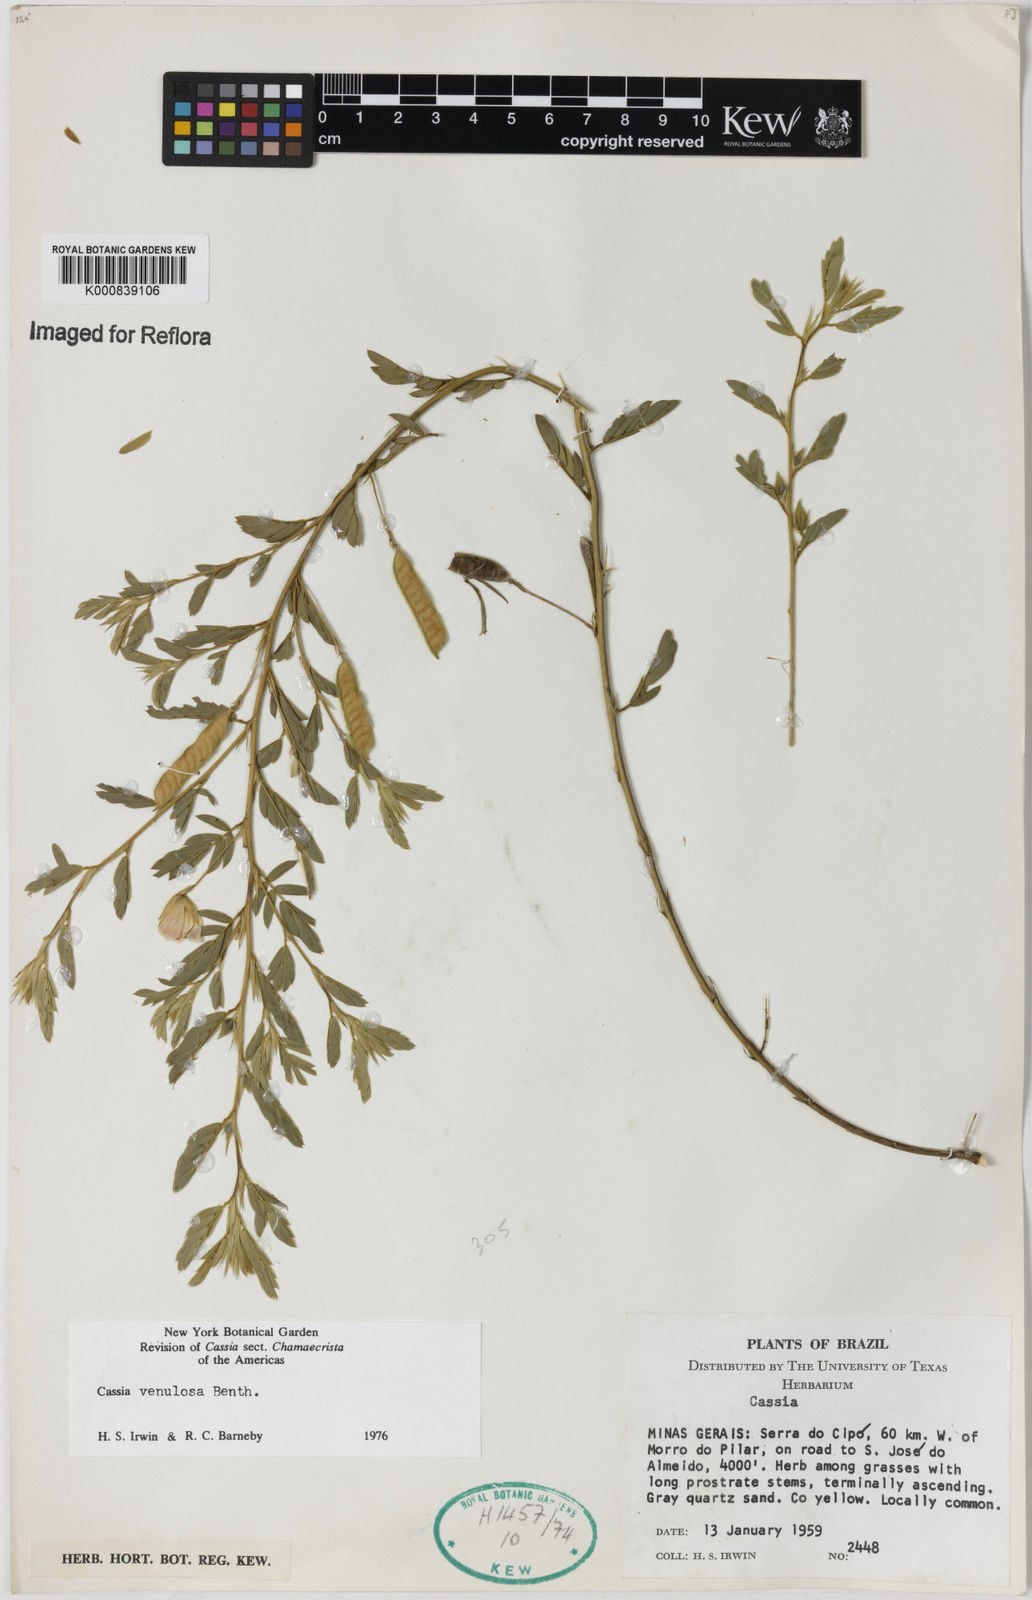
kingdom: Plantae
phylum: Tracheophyta
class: Magnoliopsida
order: Fabales
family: Fabaceae
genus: Chamaecrista
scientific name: Chamaecrista venulosa
